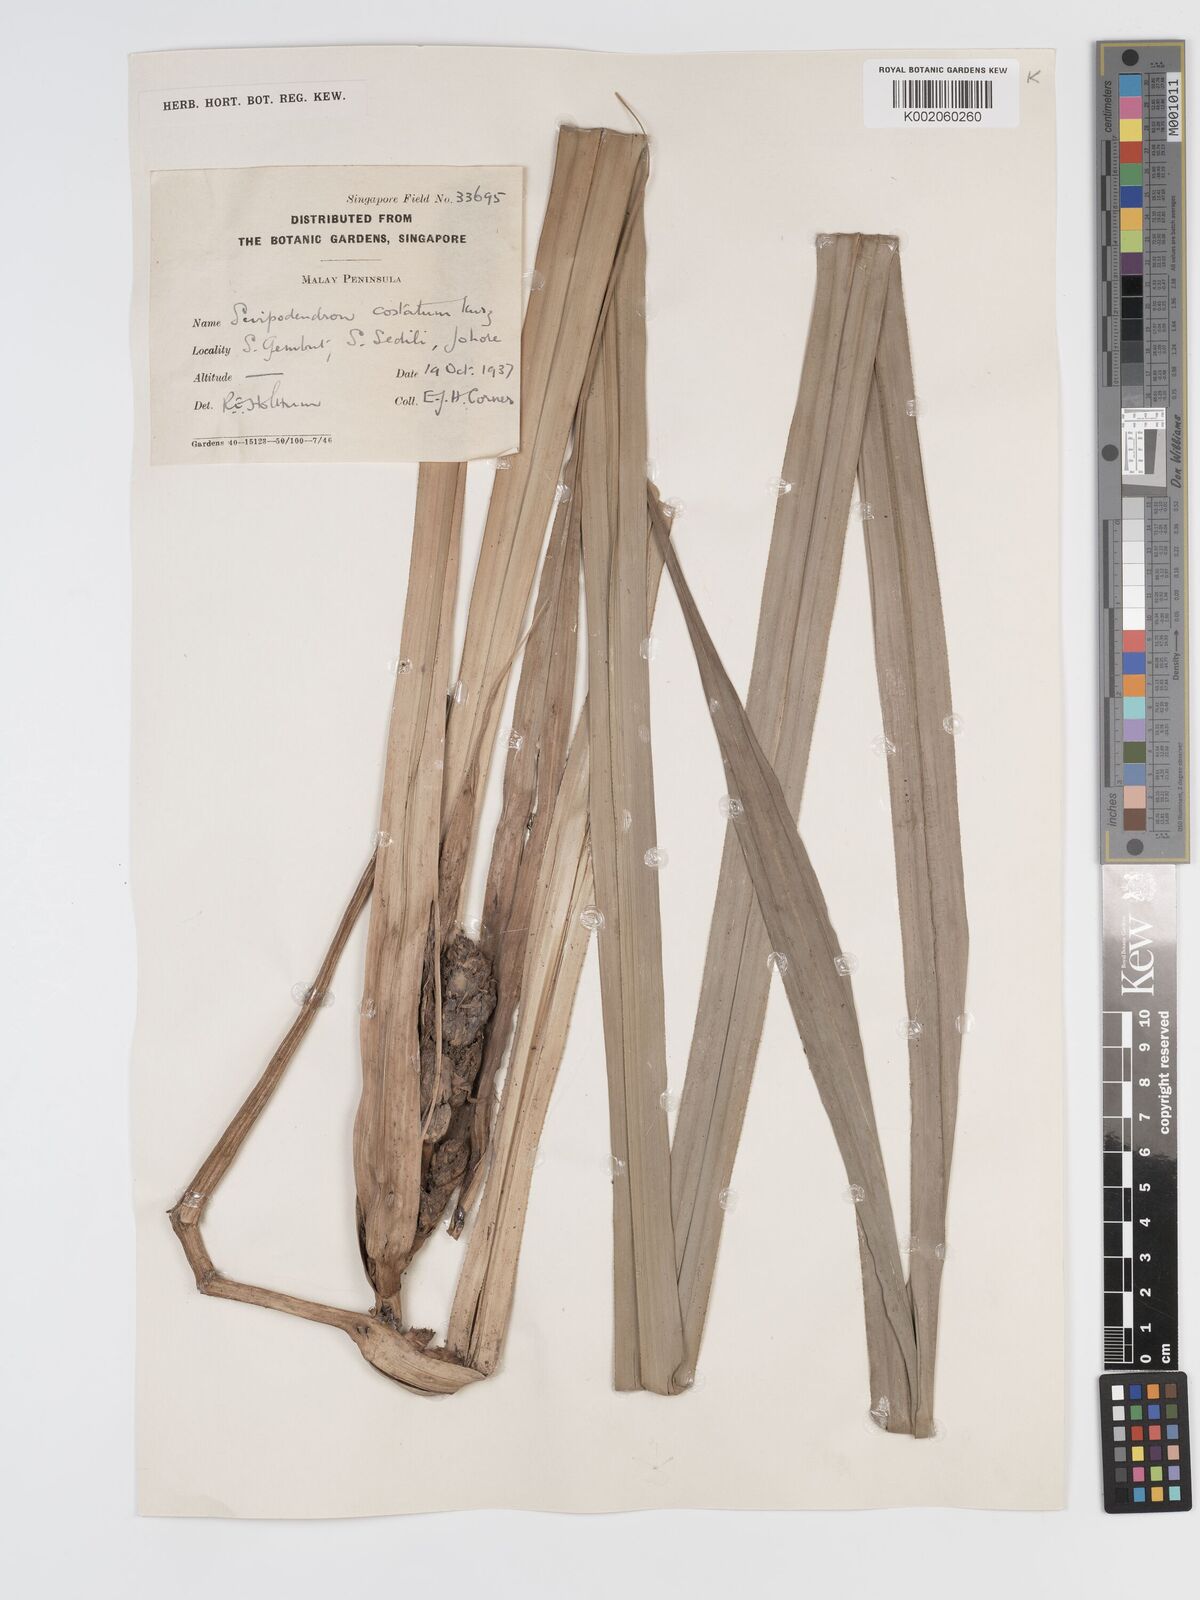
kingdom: Plantae
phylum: Tracheophyta
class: Liliopsida
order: Poales
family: Cyperaceae
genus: Scirpodendron
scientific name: Scirpodendron ghaeri
